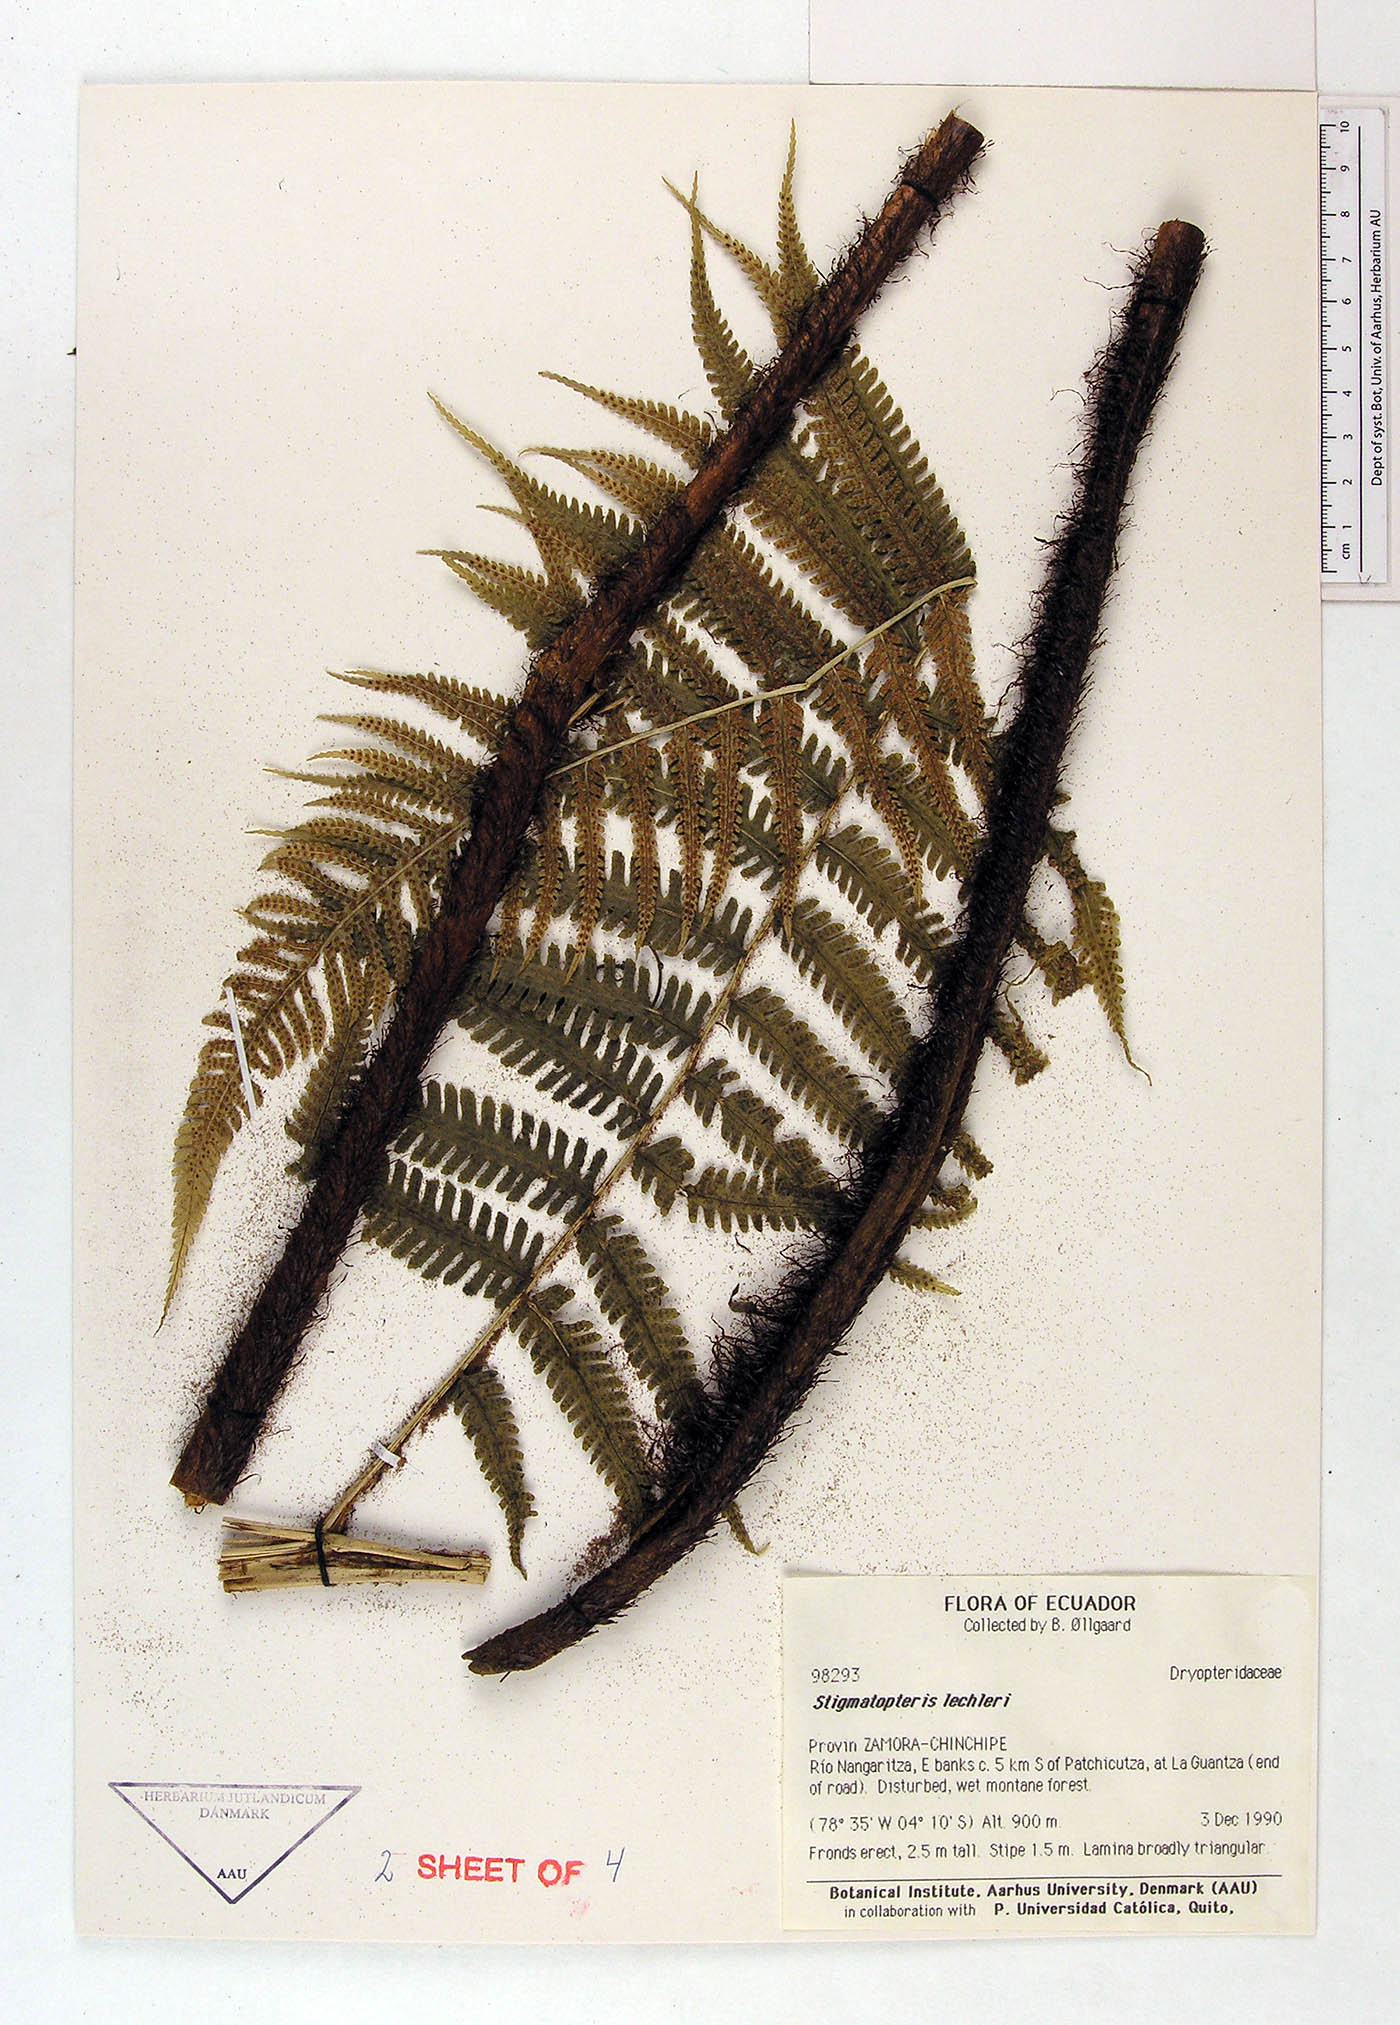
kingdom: Plantae
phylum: Tracheophyta
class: Polypodiopsida
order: Polypodiales
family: Dryopteridaceae
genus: Stigmatopteris
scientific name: Stigmatopteris lechleri
